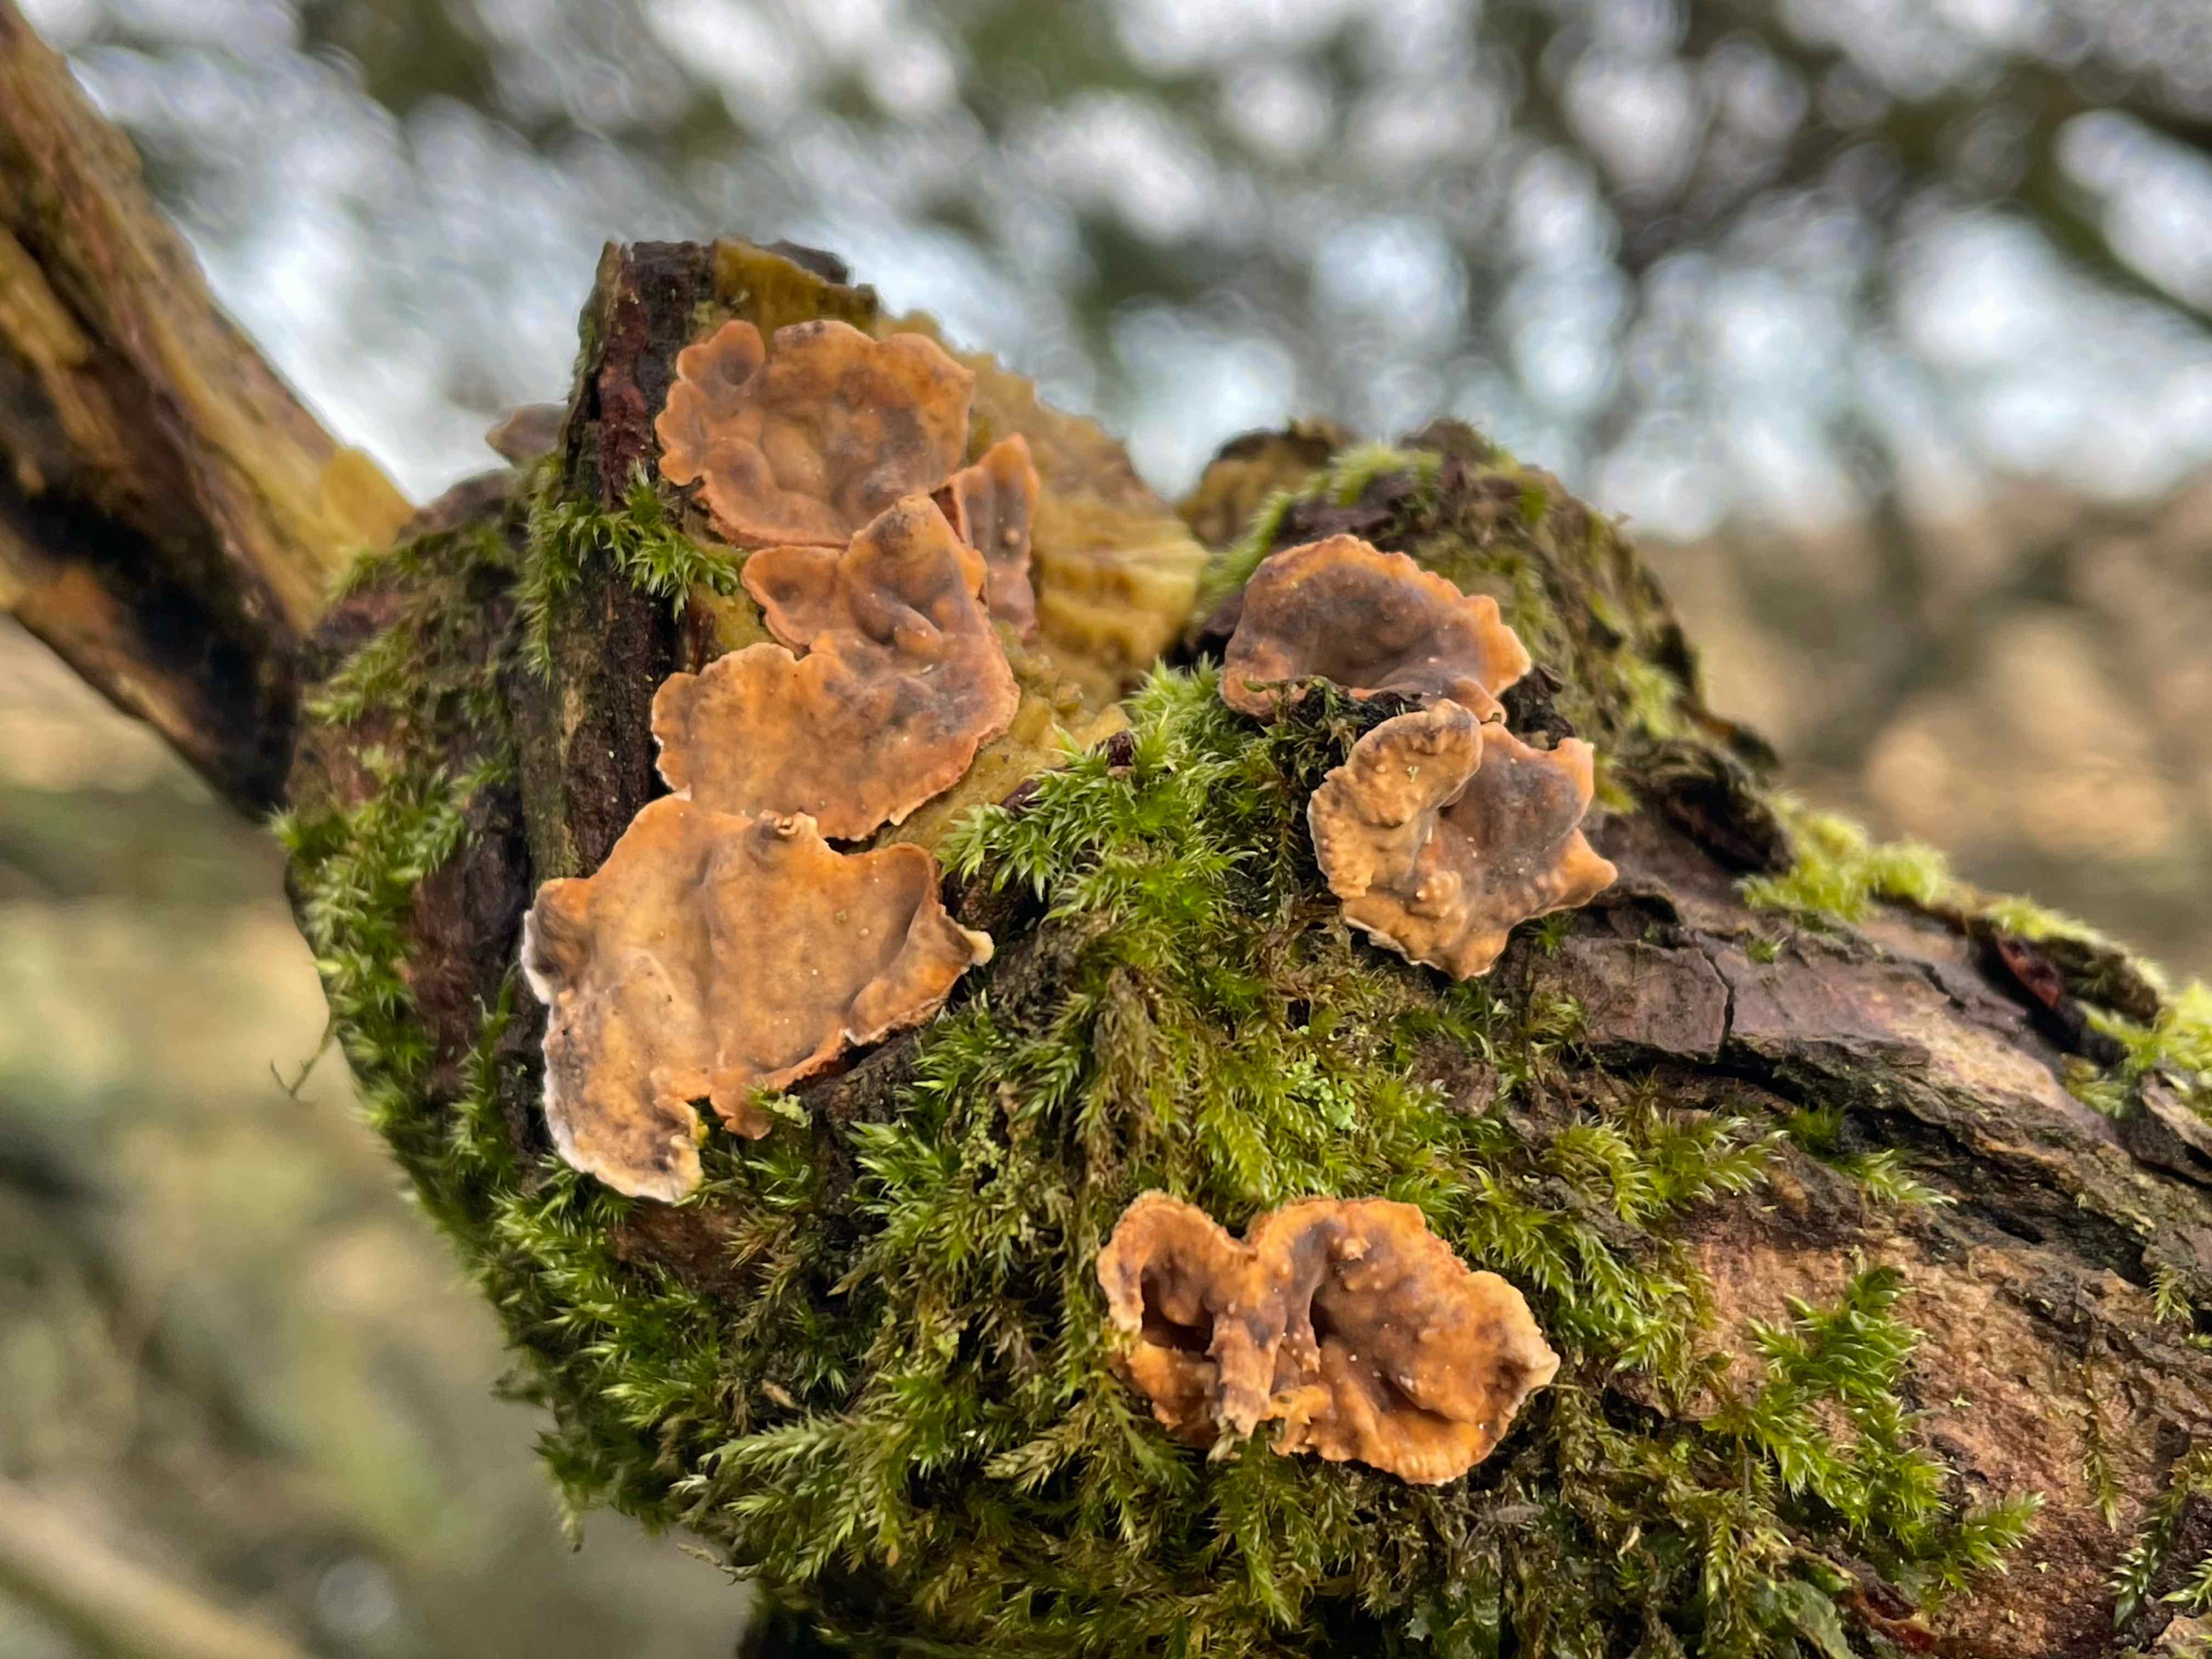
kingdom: Fungi
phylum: Basidiomycota
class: Agaricomycetes
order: Russulales
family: Stereaceae
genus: Stereum
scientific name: Stereum rugosum
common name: rynket lædersvamp
